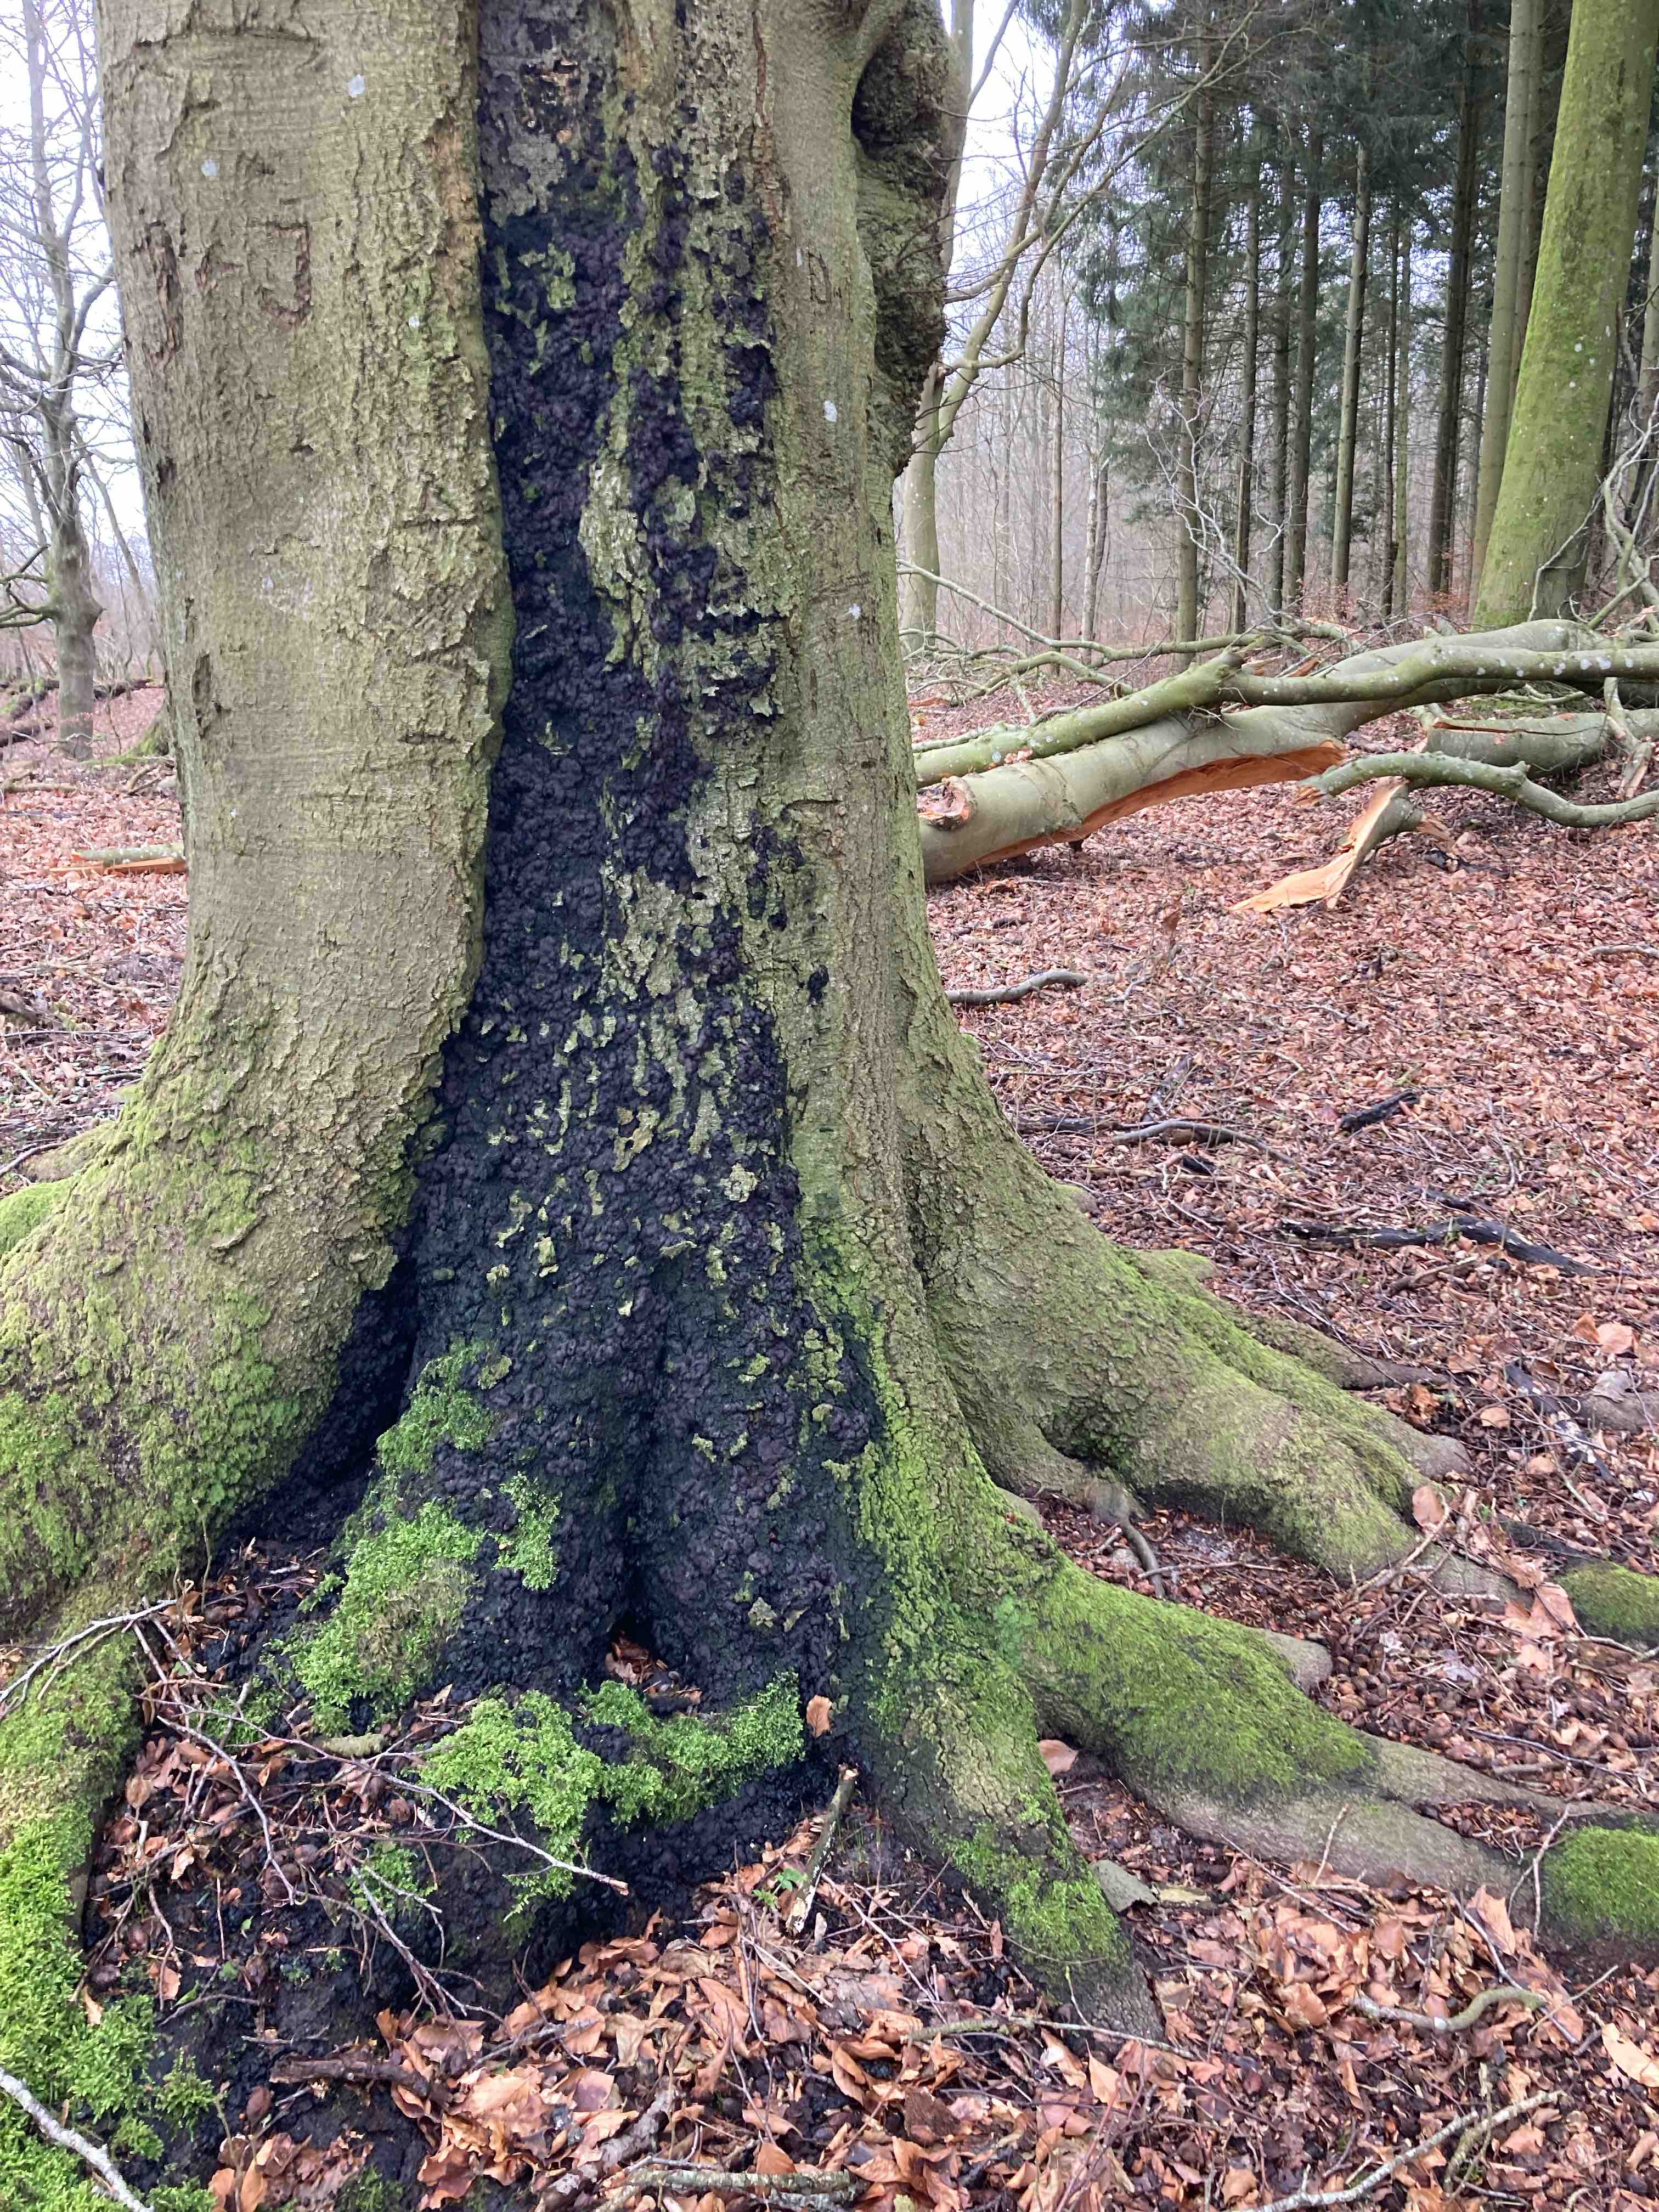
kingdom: Fungi
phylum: Ascomycota
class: Sordariomycetes
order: Xylariales
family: Xylariaceae
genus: Kretzschmaria
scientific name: Kretzschmaria deusta
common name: stor kulsvamp
